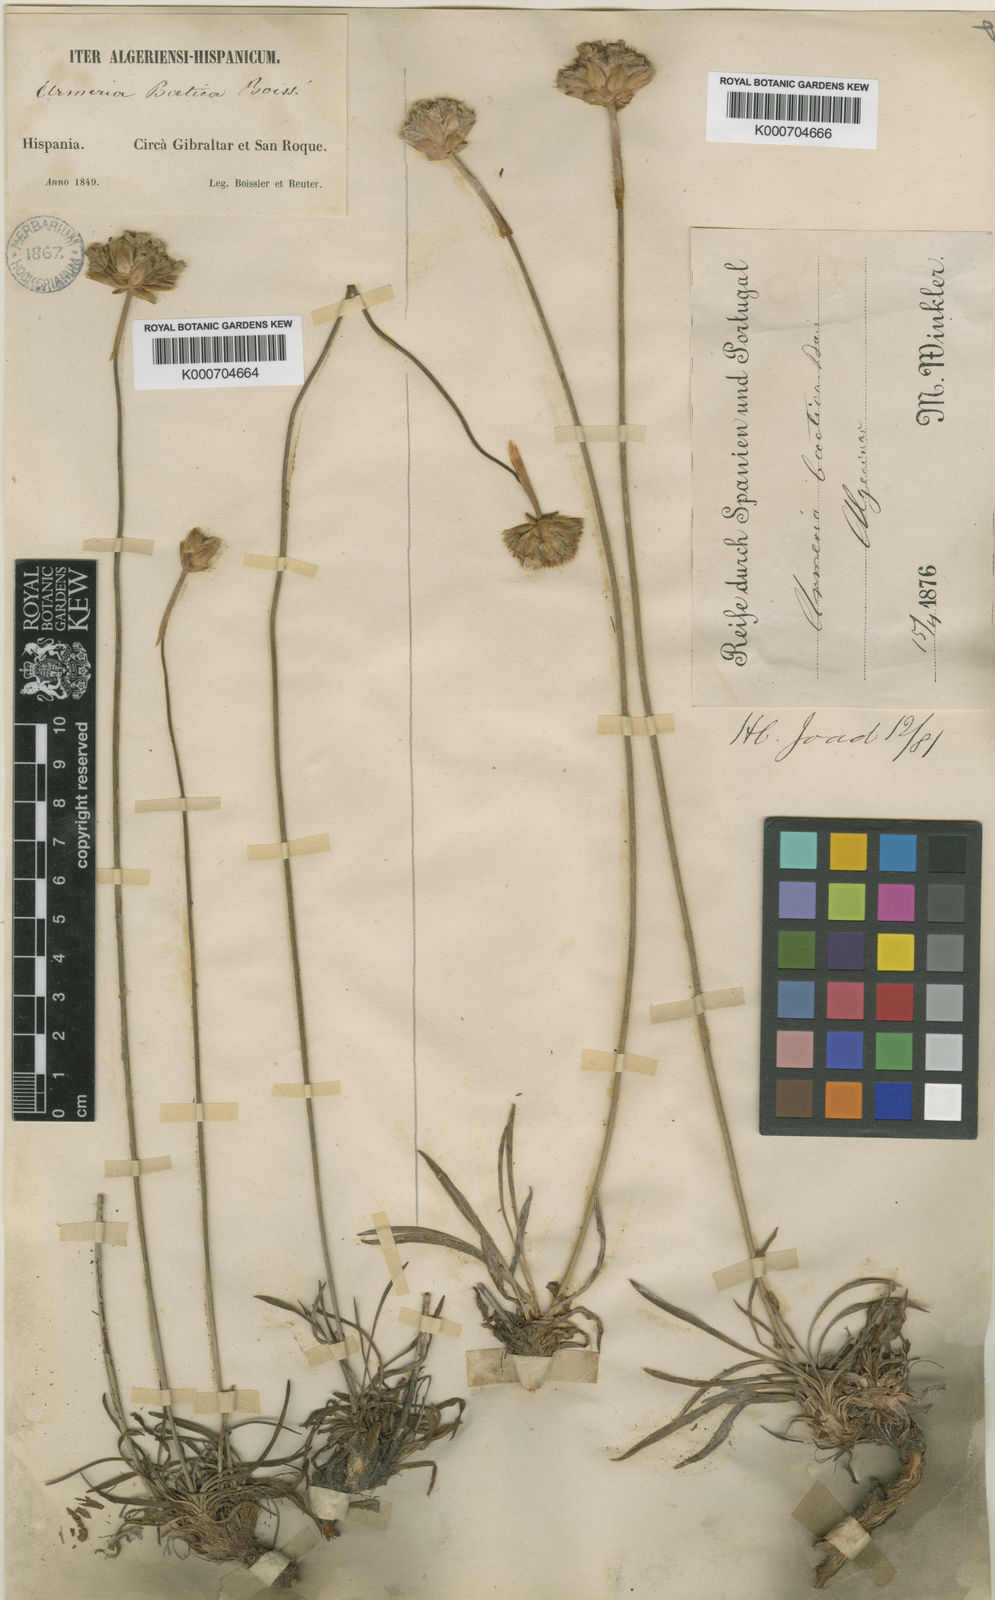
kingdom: Plantae
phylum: Tracheophyta
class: Magnoliopsida
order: Caryophyllales
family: Plumbaginaceae
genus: Armeria
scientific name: Armeria hirta
